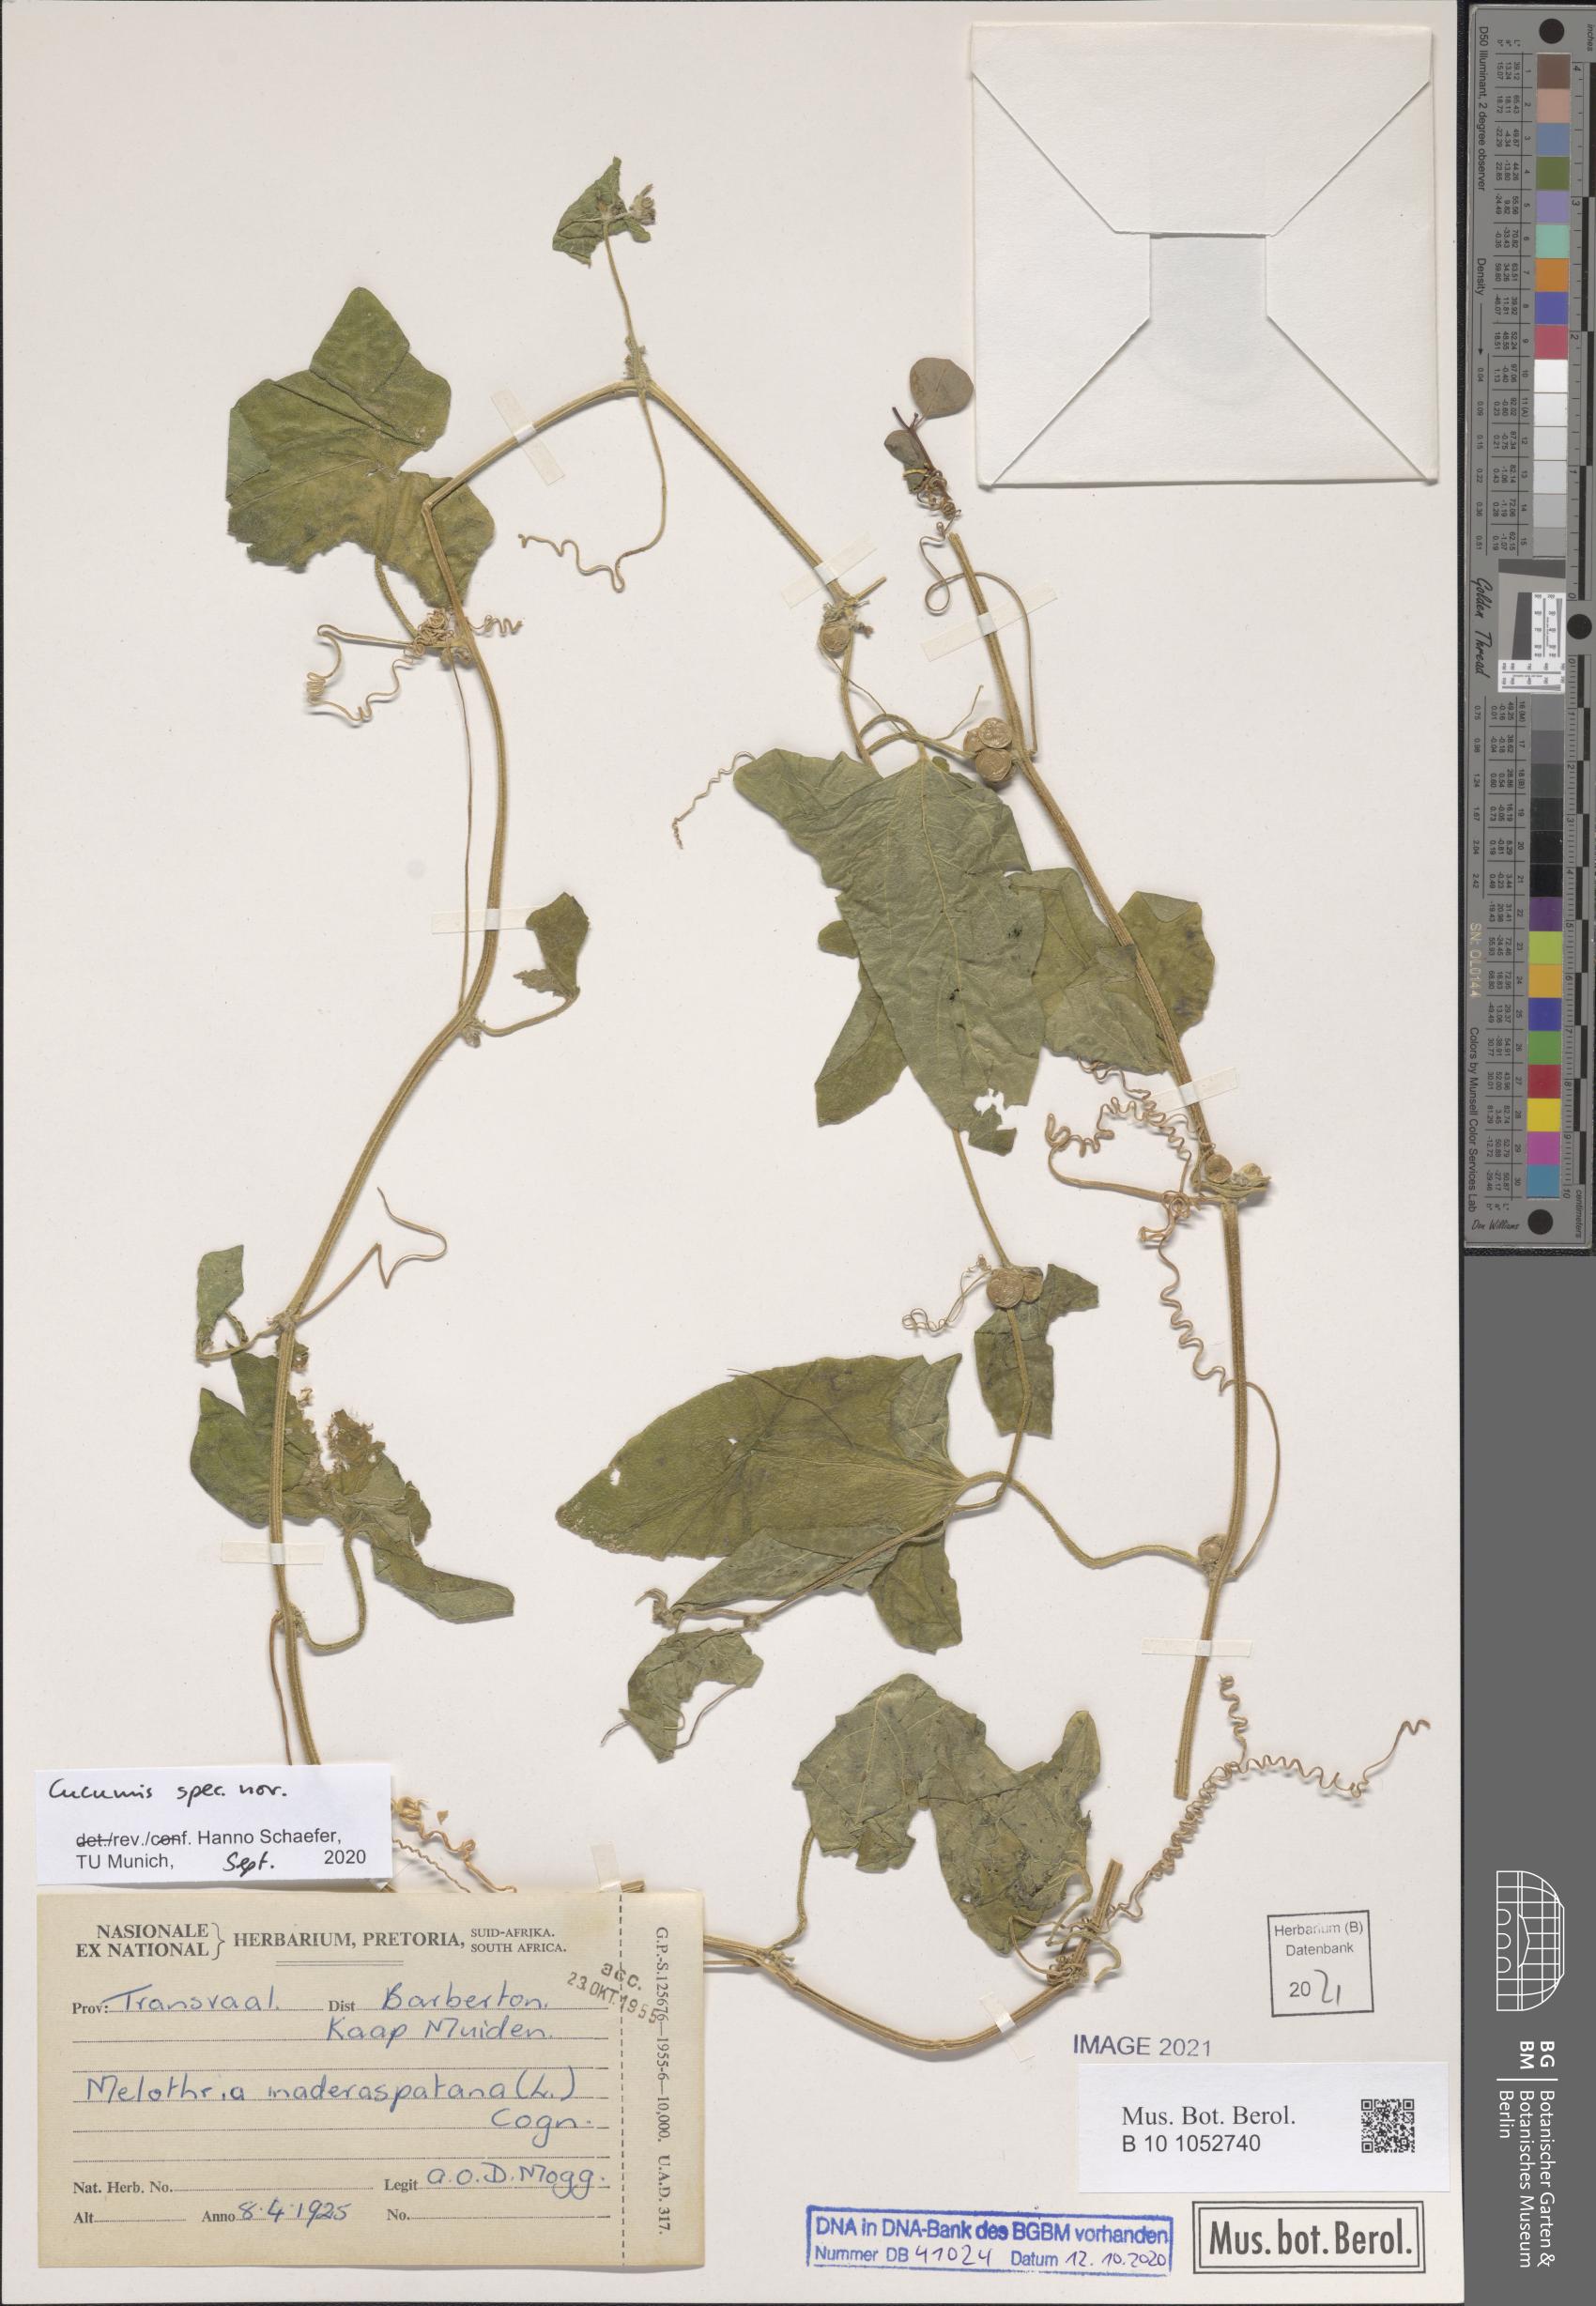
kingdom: Plantae
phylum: Tracheophyta
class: Magnoliopsida
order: Cucurbitales
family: Cucurbitaceae
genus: Cucumis
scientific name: Cucumis
